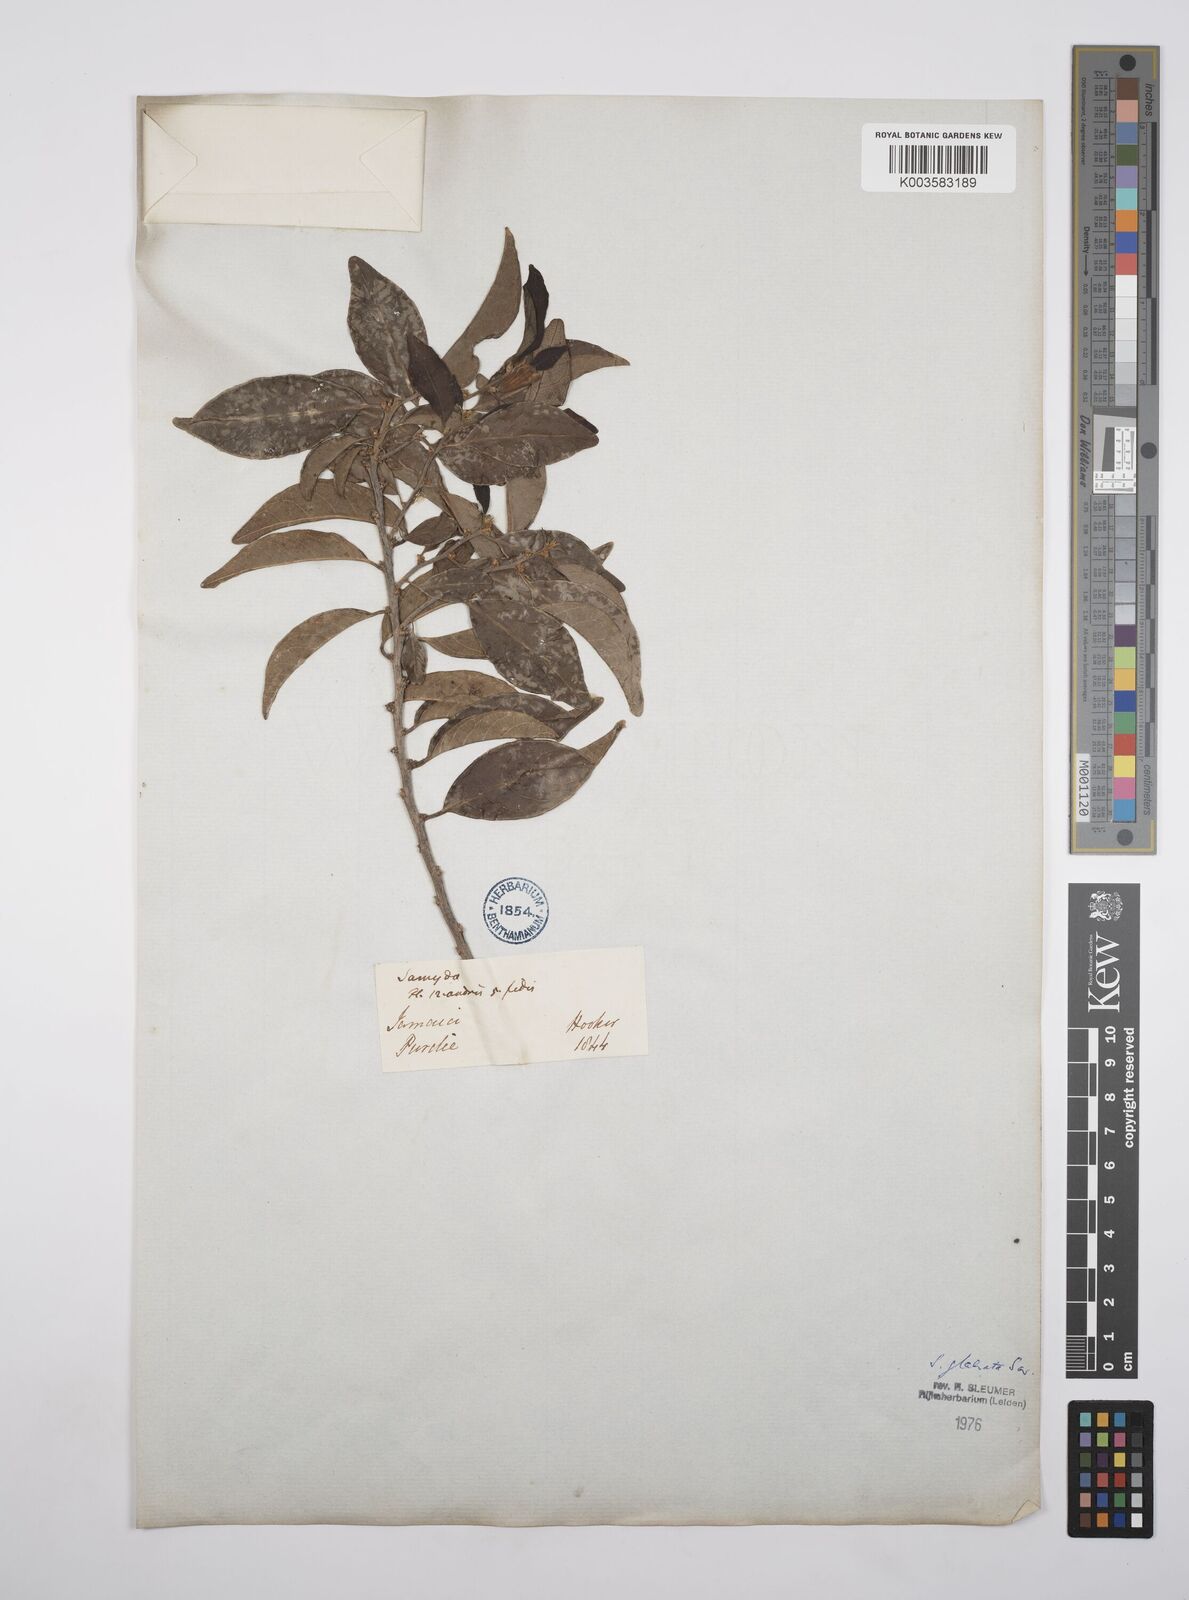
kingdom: Plantae
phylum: Tracheophyta
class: Magnoliopsida
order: Malpighiales
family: Salicaceae
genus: Casearia
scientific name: Casearia kigeri
